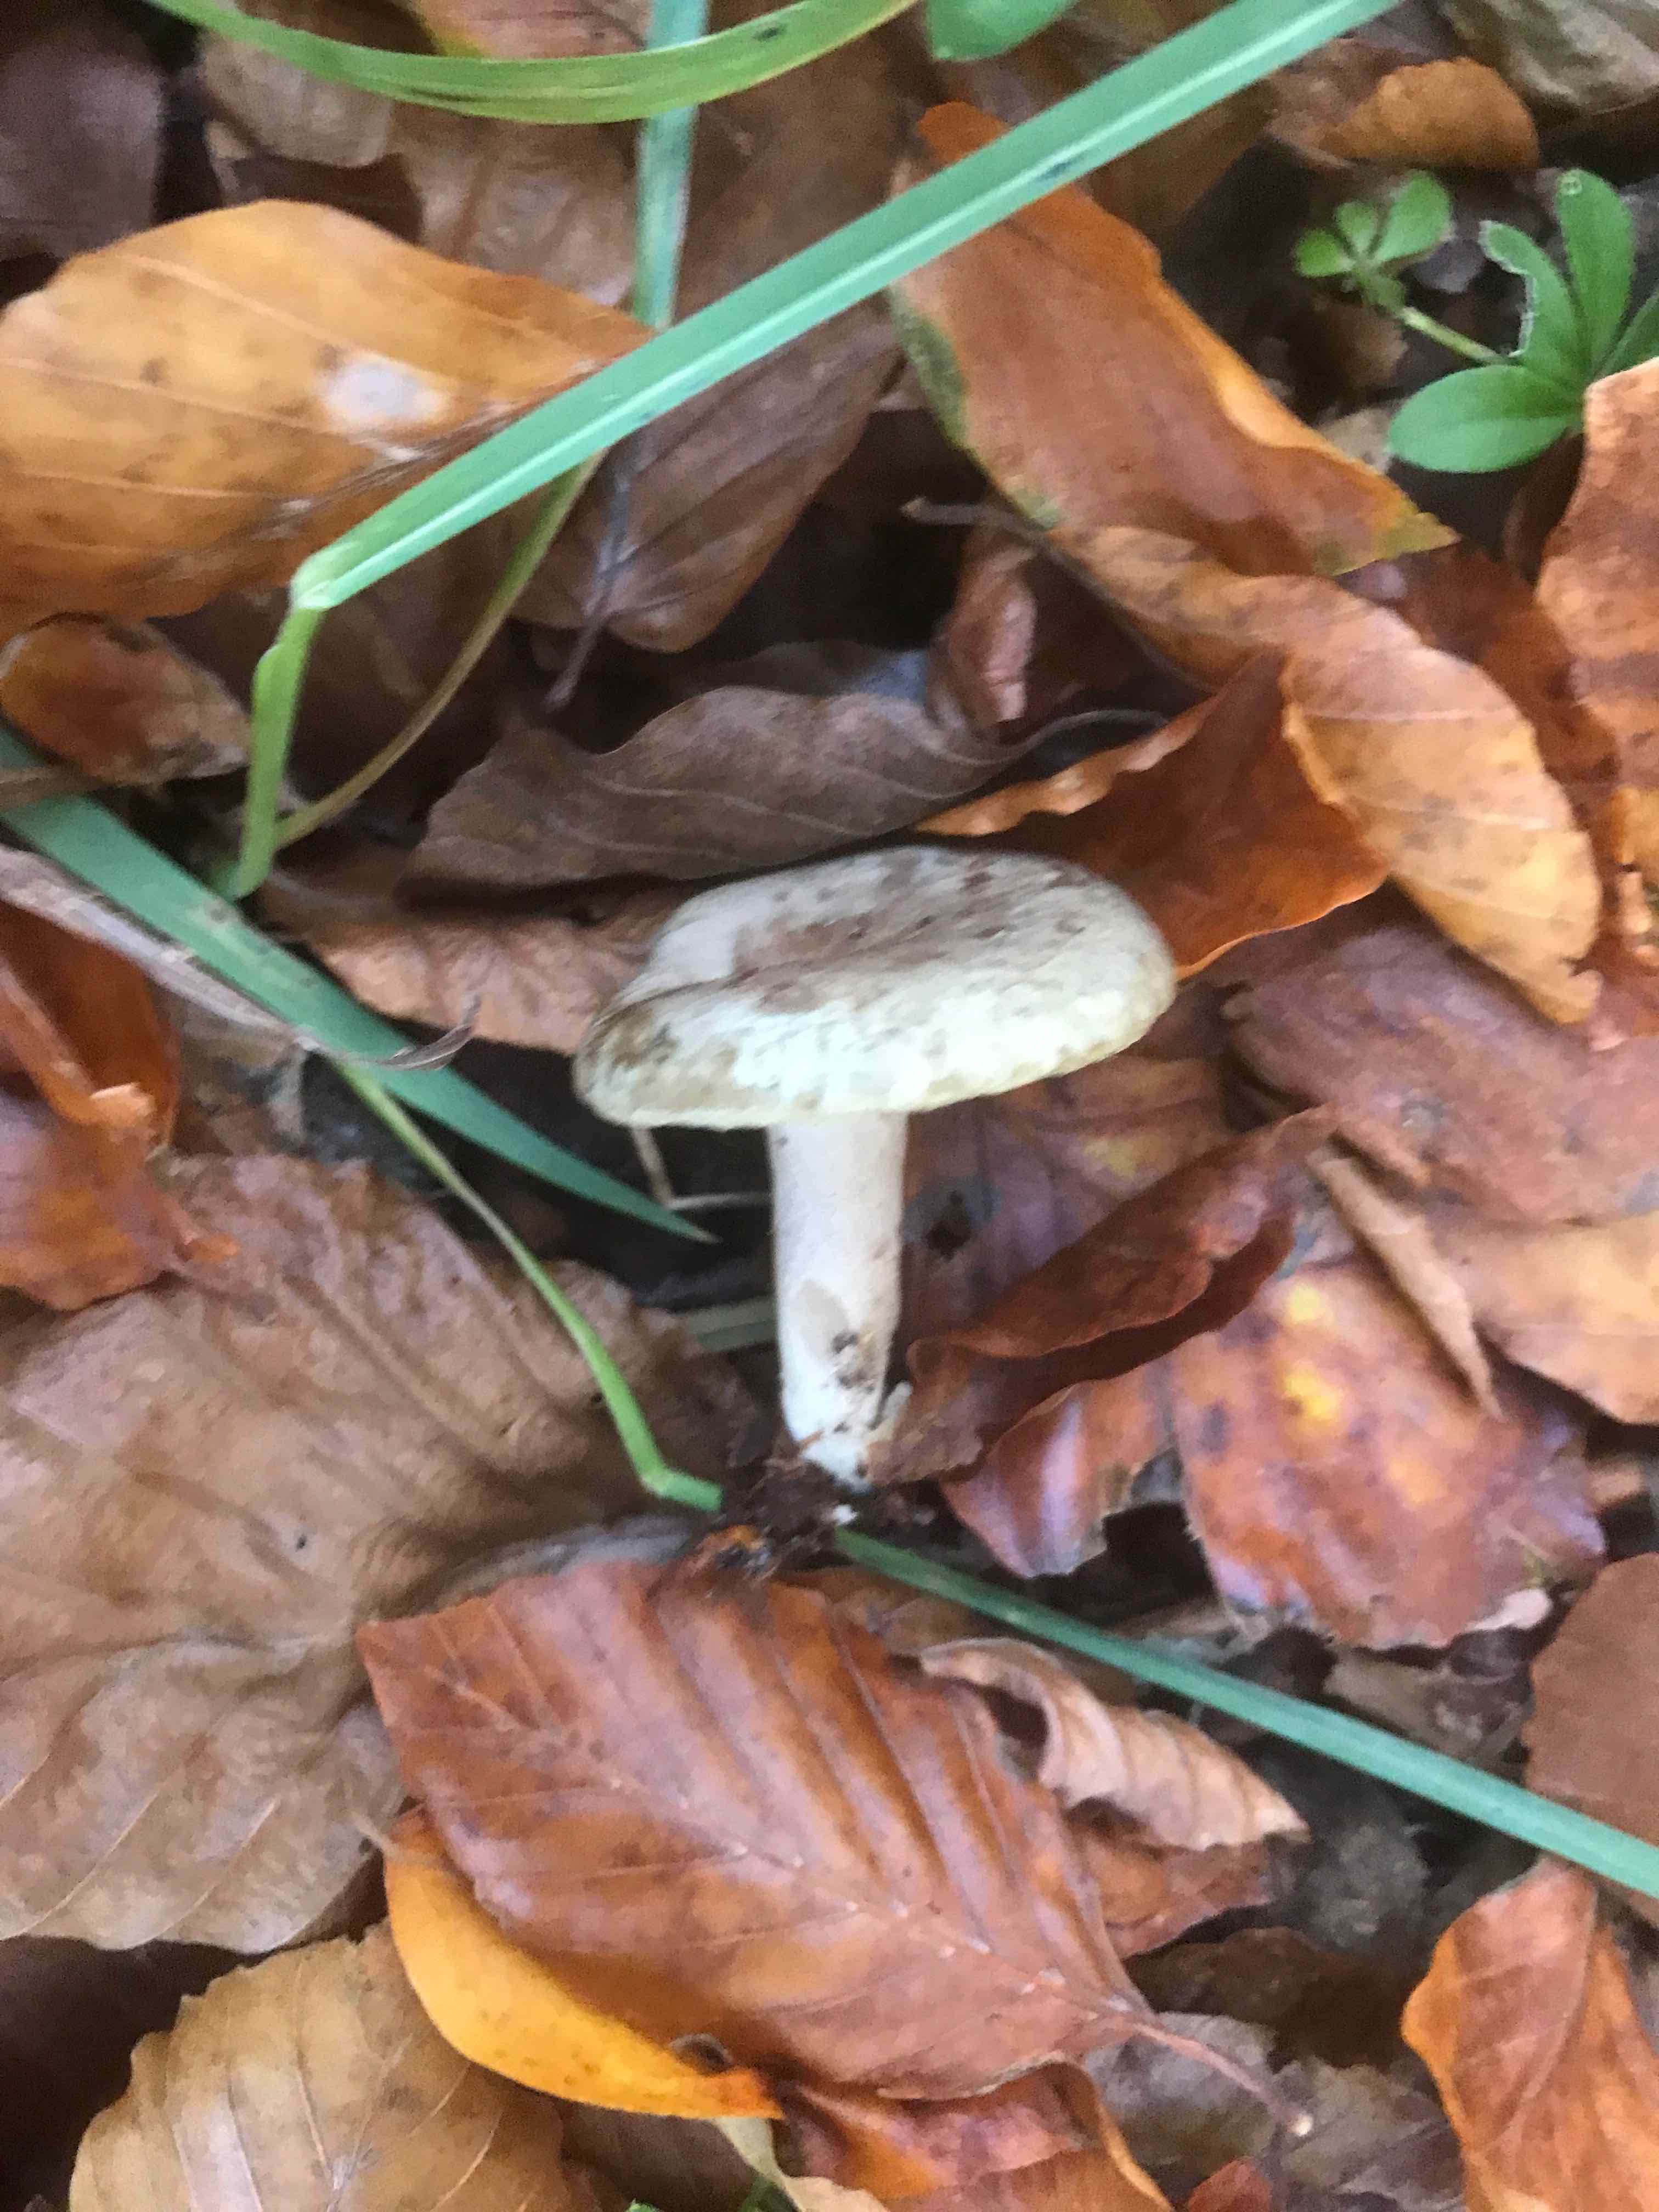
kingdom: Fungi
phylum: Basidiomycota
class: Agaricomycetes
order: Russulales
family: Russulaceae
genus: Lactarius
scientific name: Lactarius blennius
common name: dråbeplettet mælkehat
